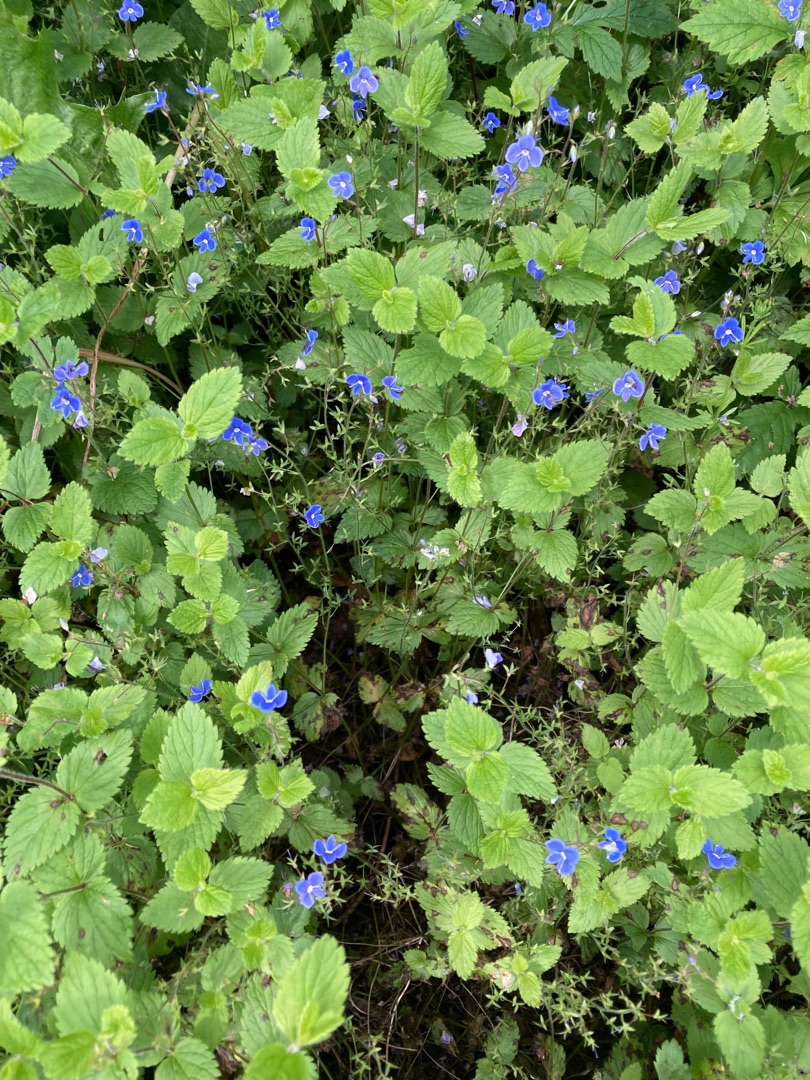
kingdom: Plantae
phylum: Tracheophyta
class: Magnoliopsida
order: Lamiales
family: Plantaginaceae
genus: Veronica
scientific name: Veronica chamaedrys
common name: Tveskægget ærenpris
